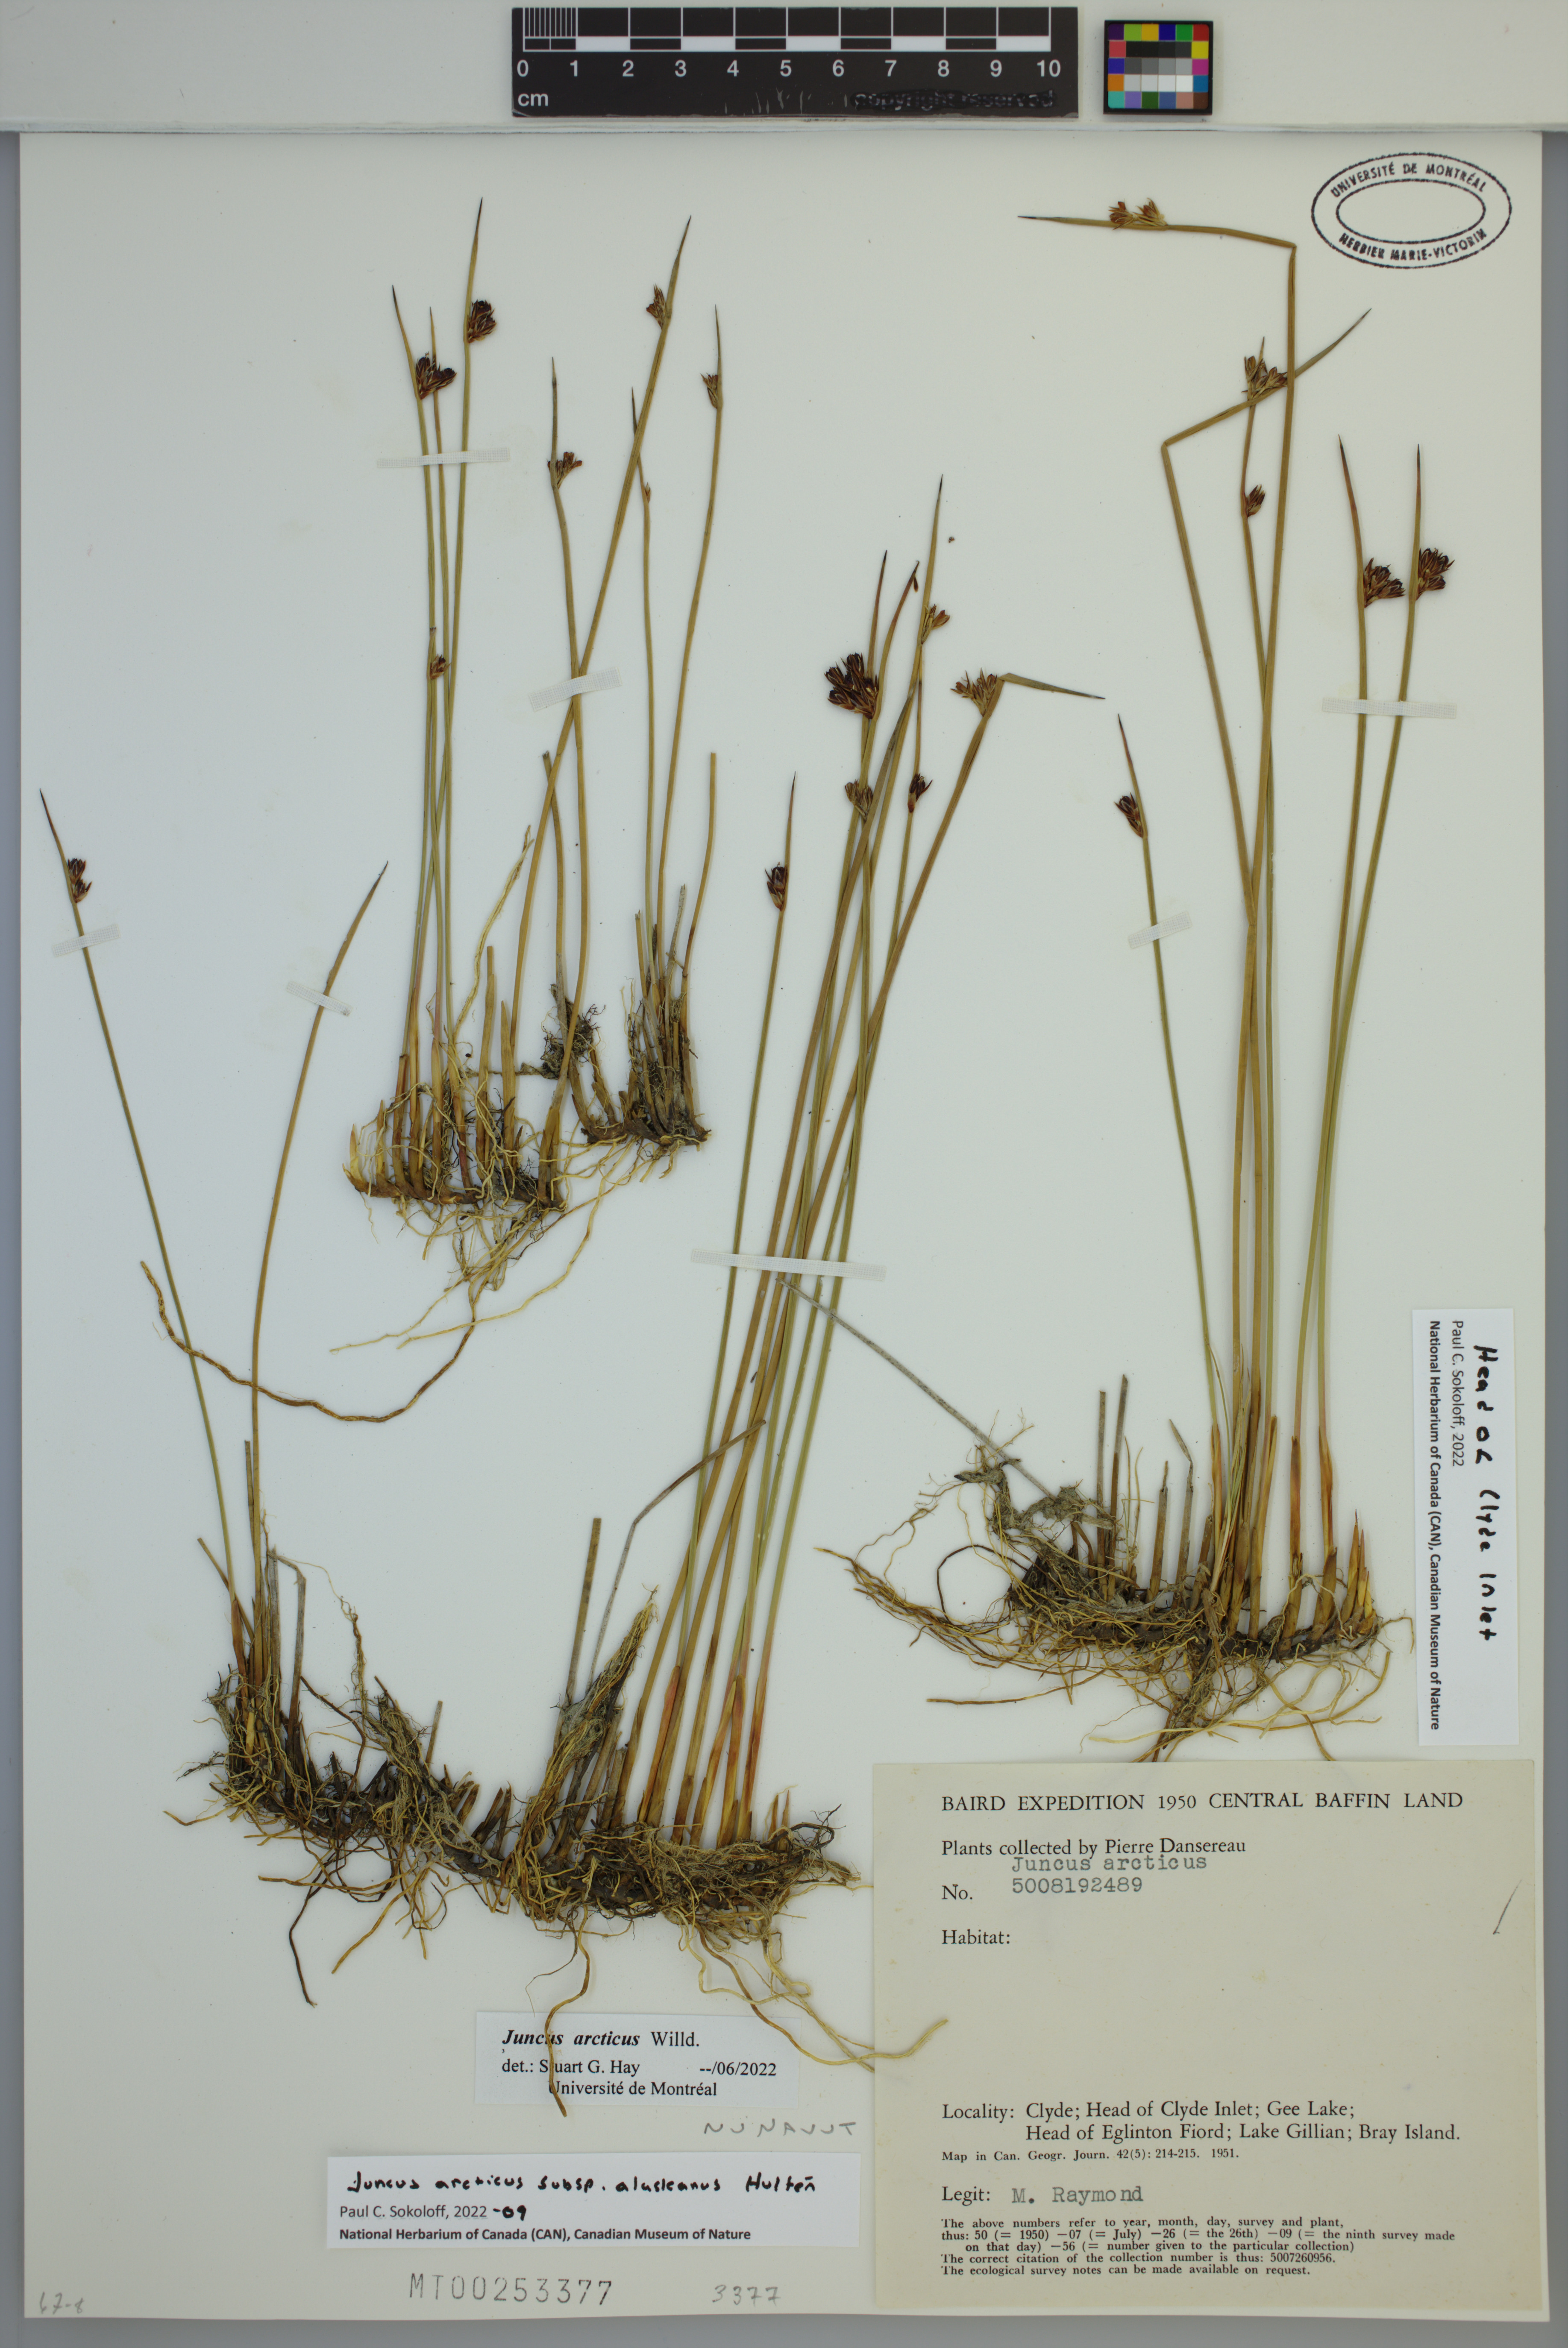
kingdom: Plantae
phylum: Tracheophyta
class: Liliopsida
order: Poales
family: Juncaceae
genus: Juncus
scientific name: Juncus arcticus
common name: Arctic rush
